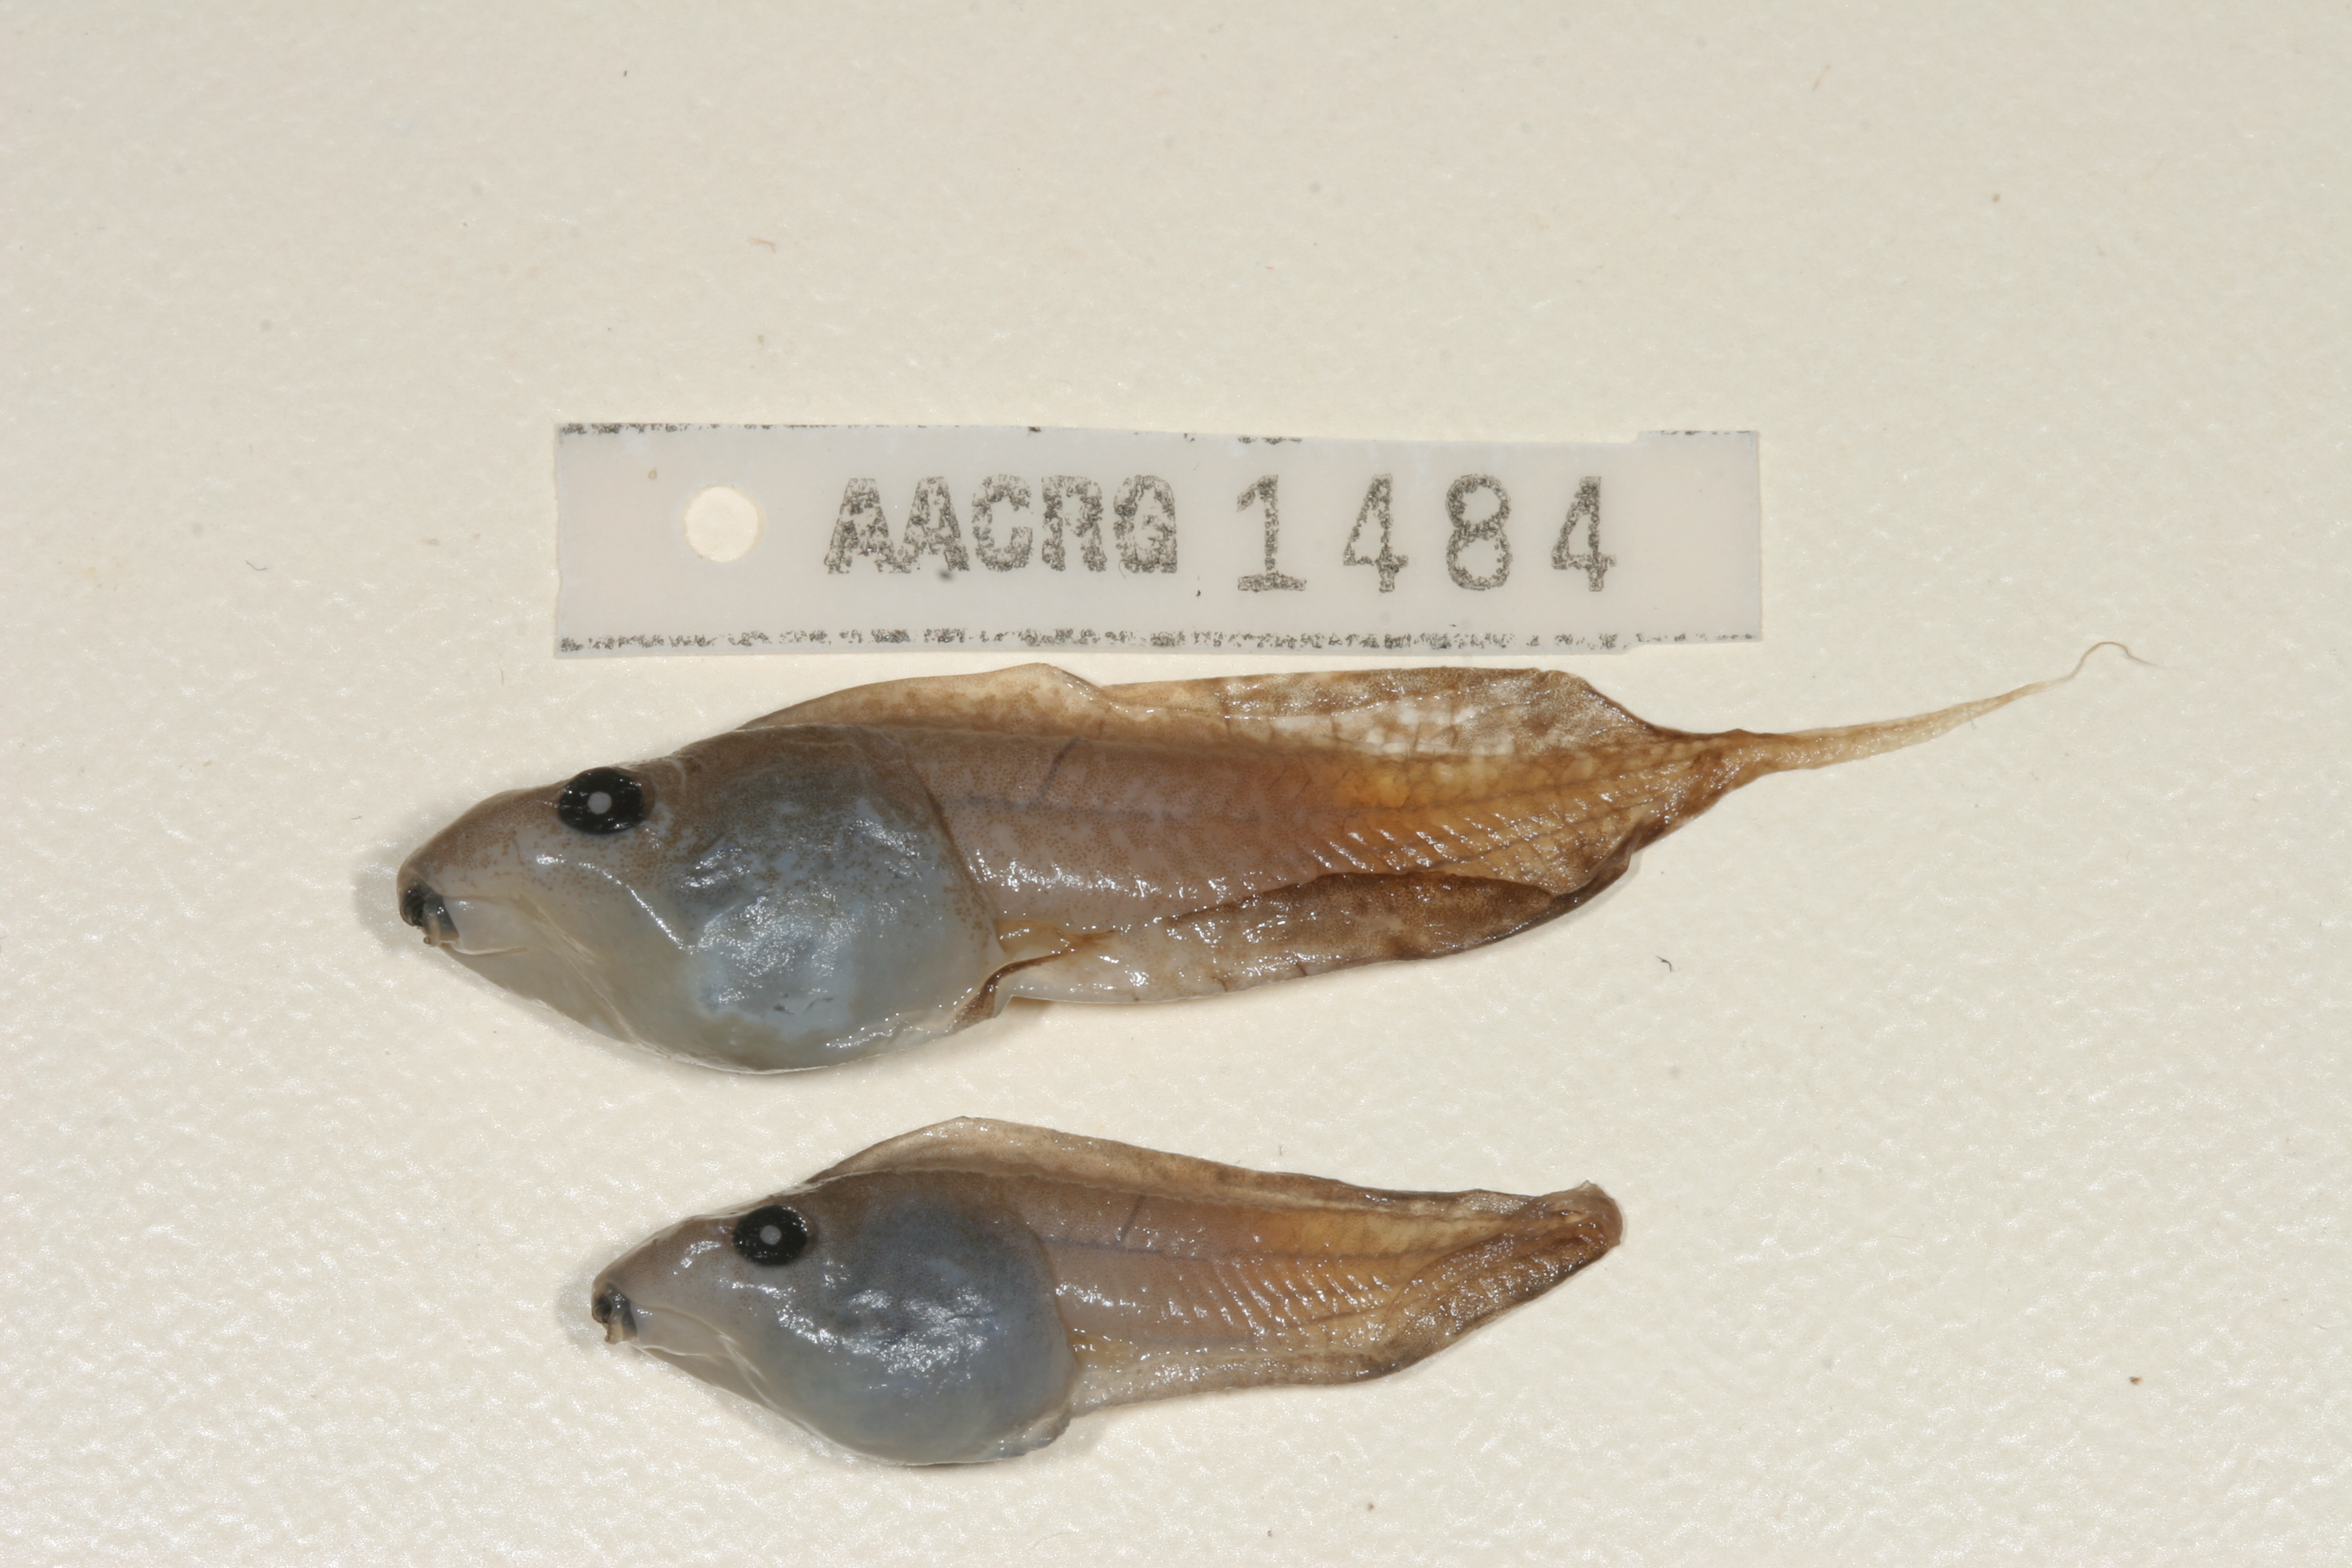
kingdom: Animalia
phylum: Chordata
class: Amphibia
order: Anura
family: Hyperoliidae
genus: Kassina
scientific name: Kassina senegalensis
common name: Senegal land frog
